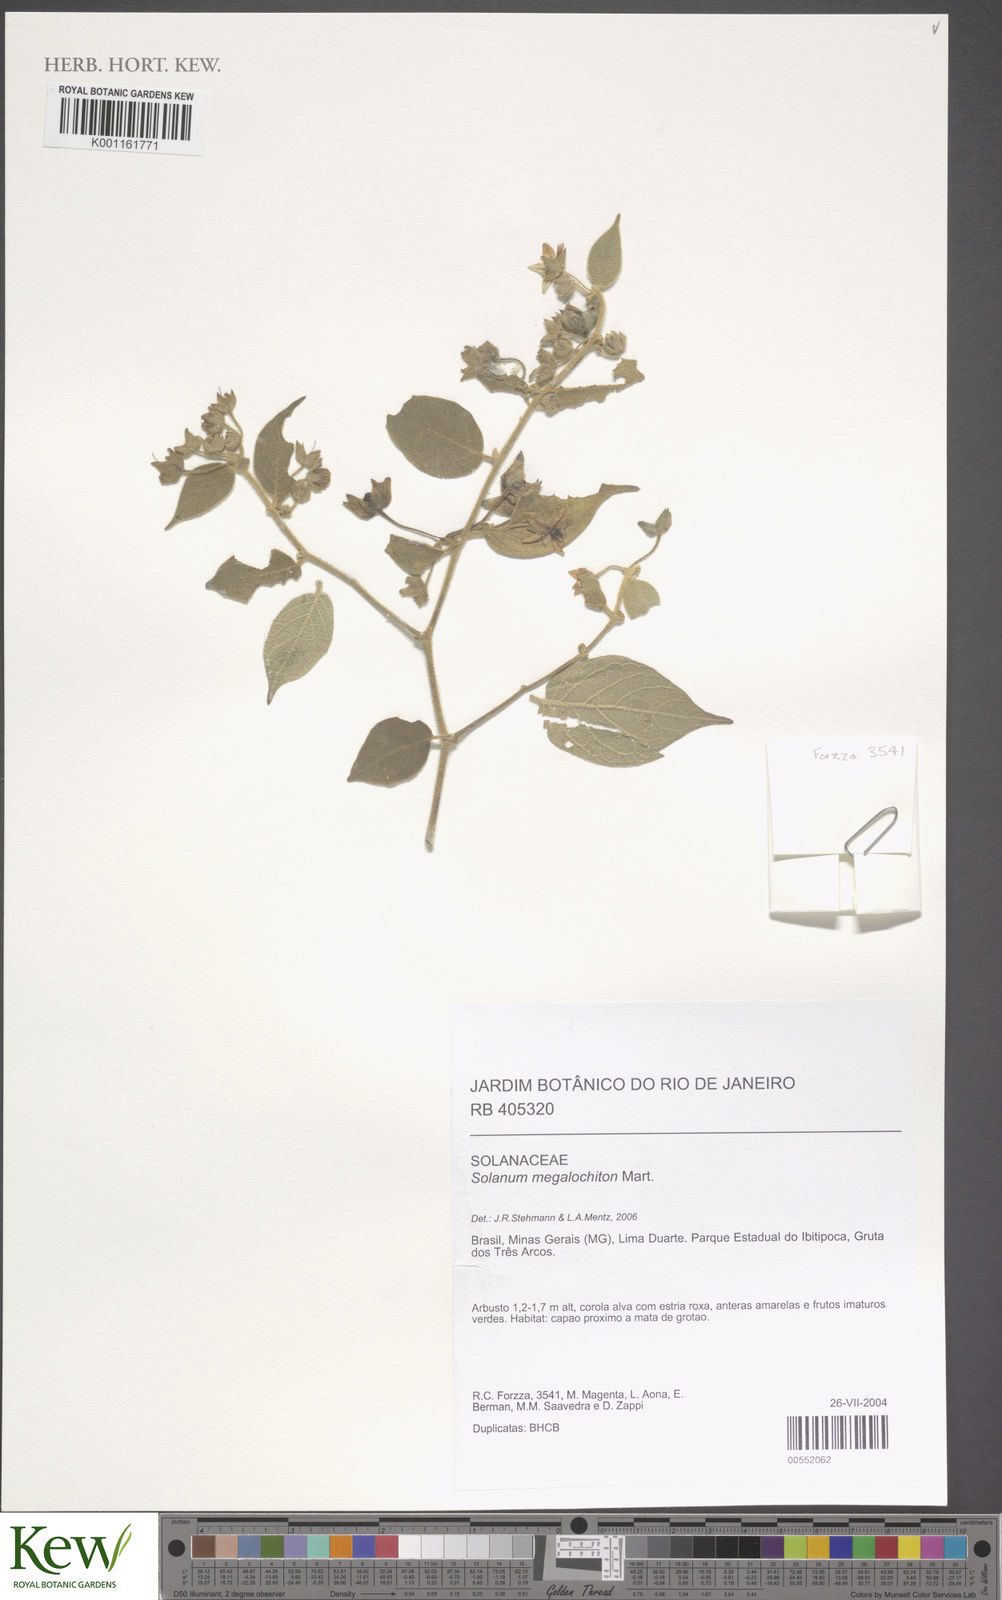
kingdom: Plantae
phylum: Tracheophyta
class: Magnoliopsida
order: Solanales
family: Solanaceae
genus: Solanum
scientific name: Solanum laxum
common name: Nightshade
